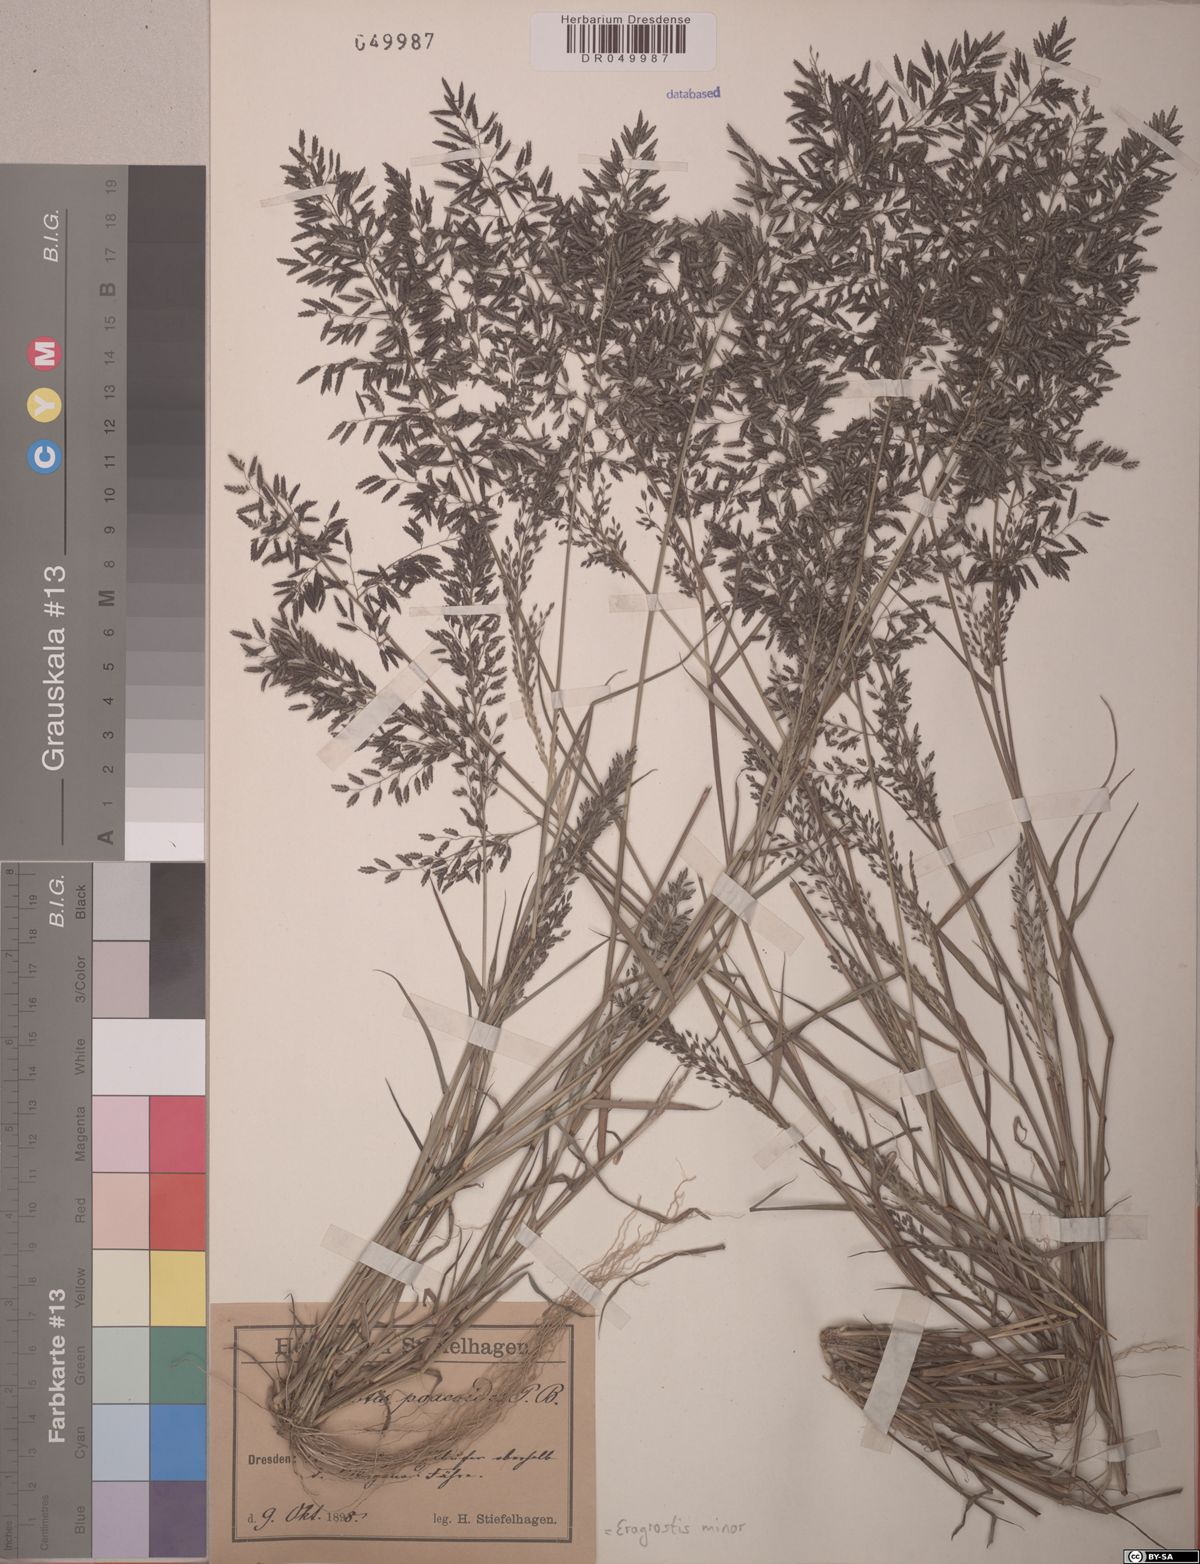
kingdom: Plantae
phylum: Tracheophyta
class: Liliopsida
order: Poales
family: Poaceae
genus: Eragrostis
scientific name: Eragrostis minor
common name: Small love-grass
